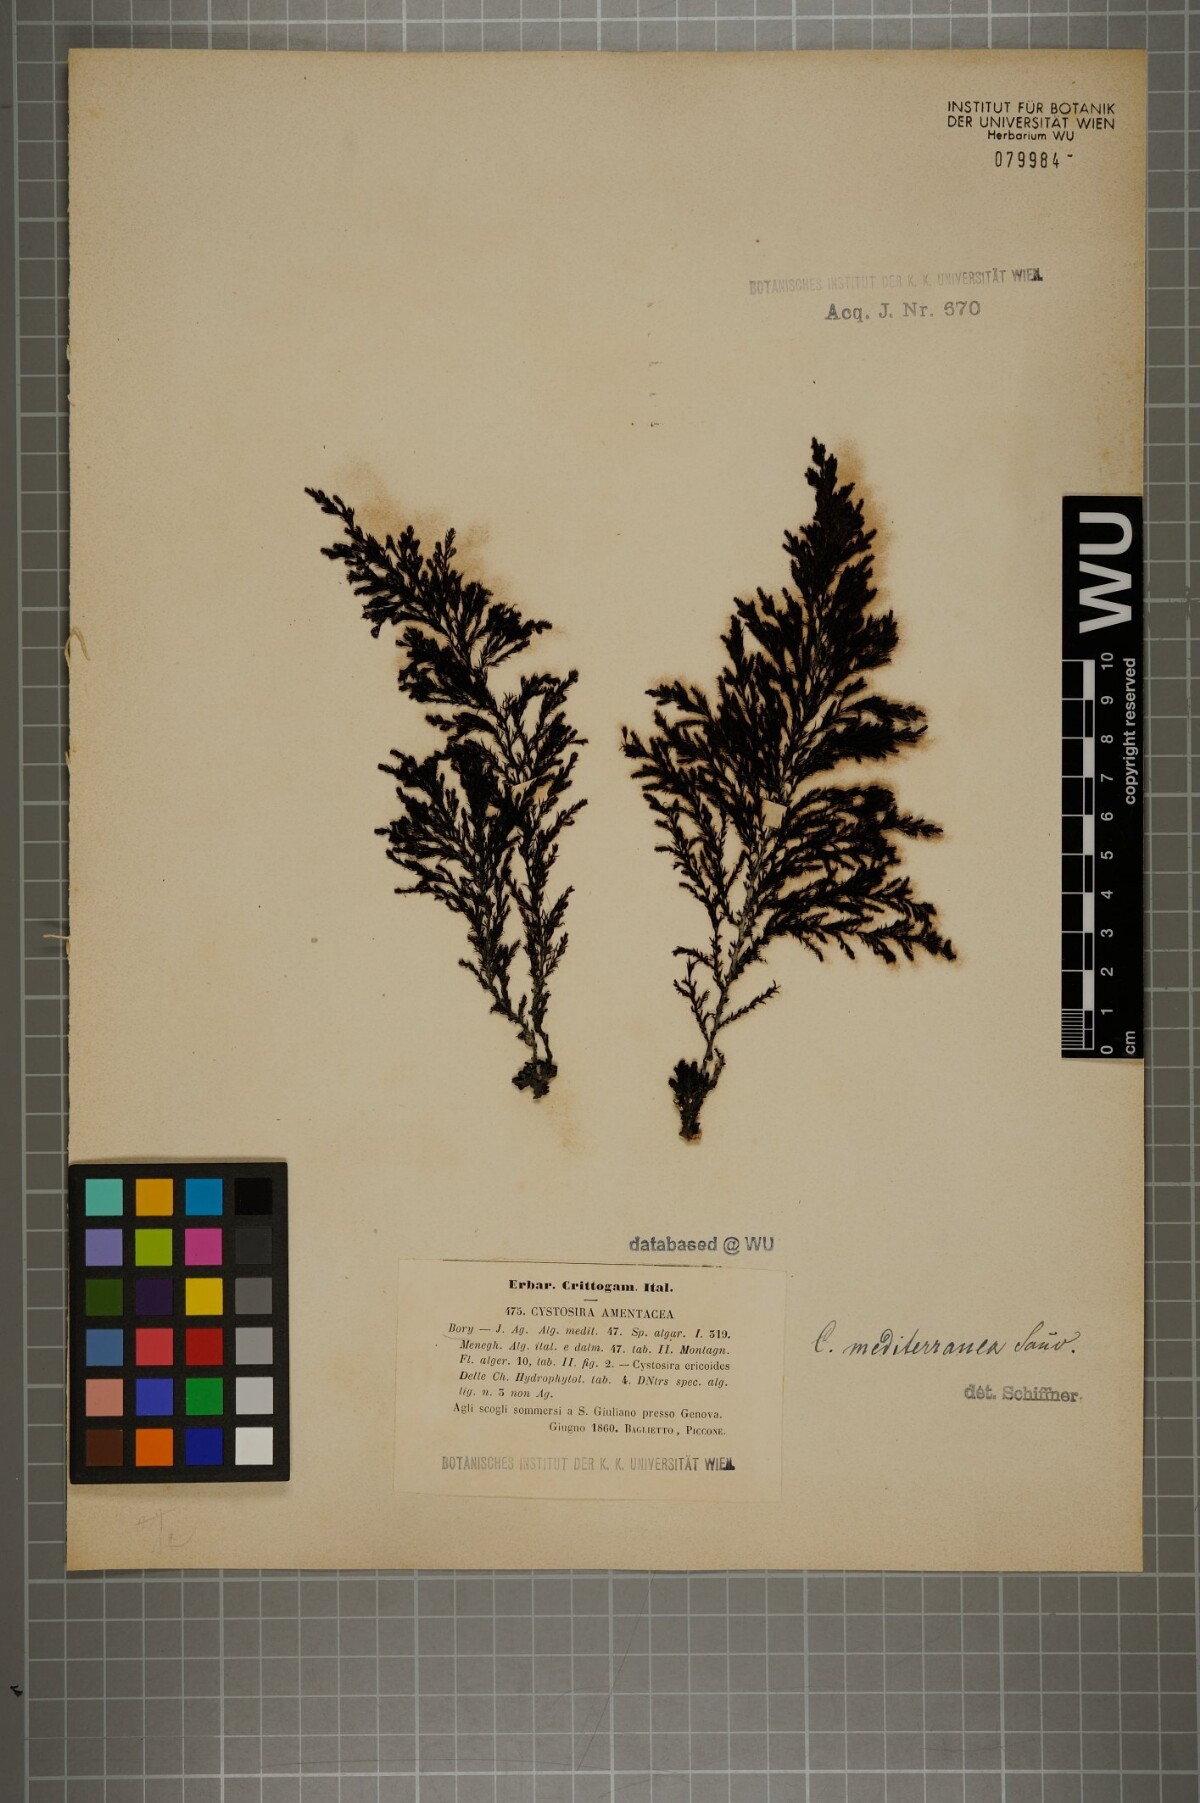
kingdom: Chromista
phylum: Ochrophyta
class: Phaeophyceae
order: Fucales
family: Sargassaceae
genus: Cystoseira
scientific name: Cystoseira Ericaria amentacea
